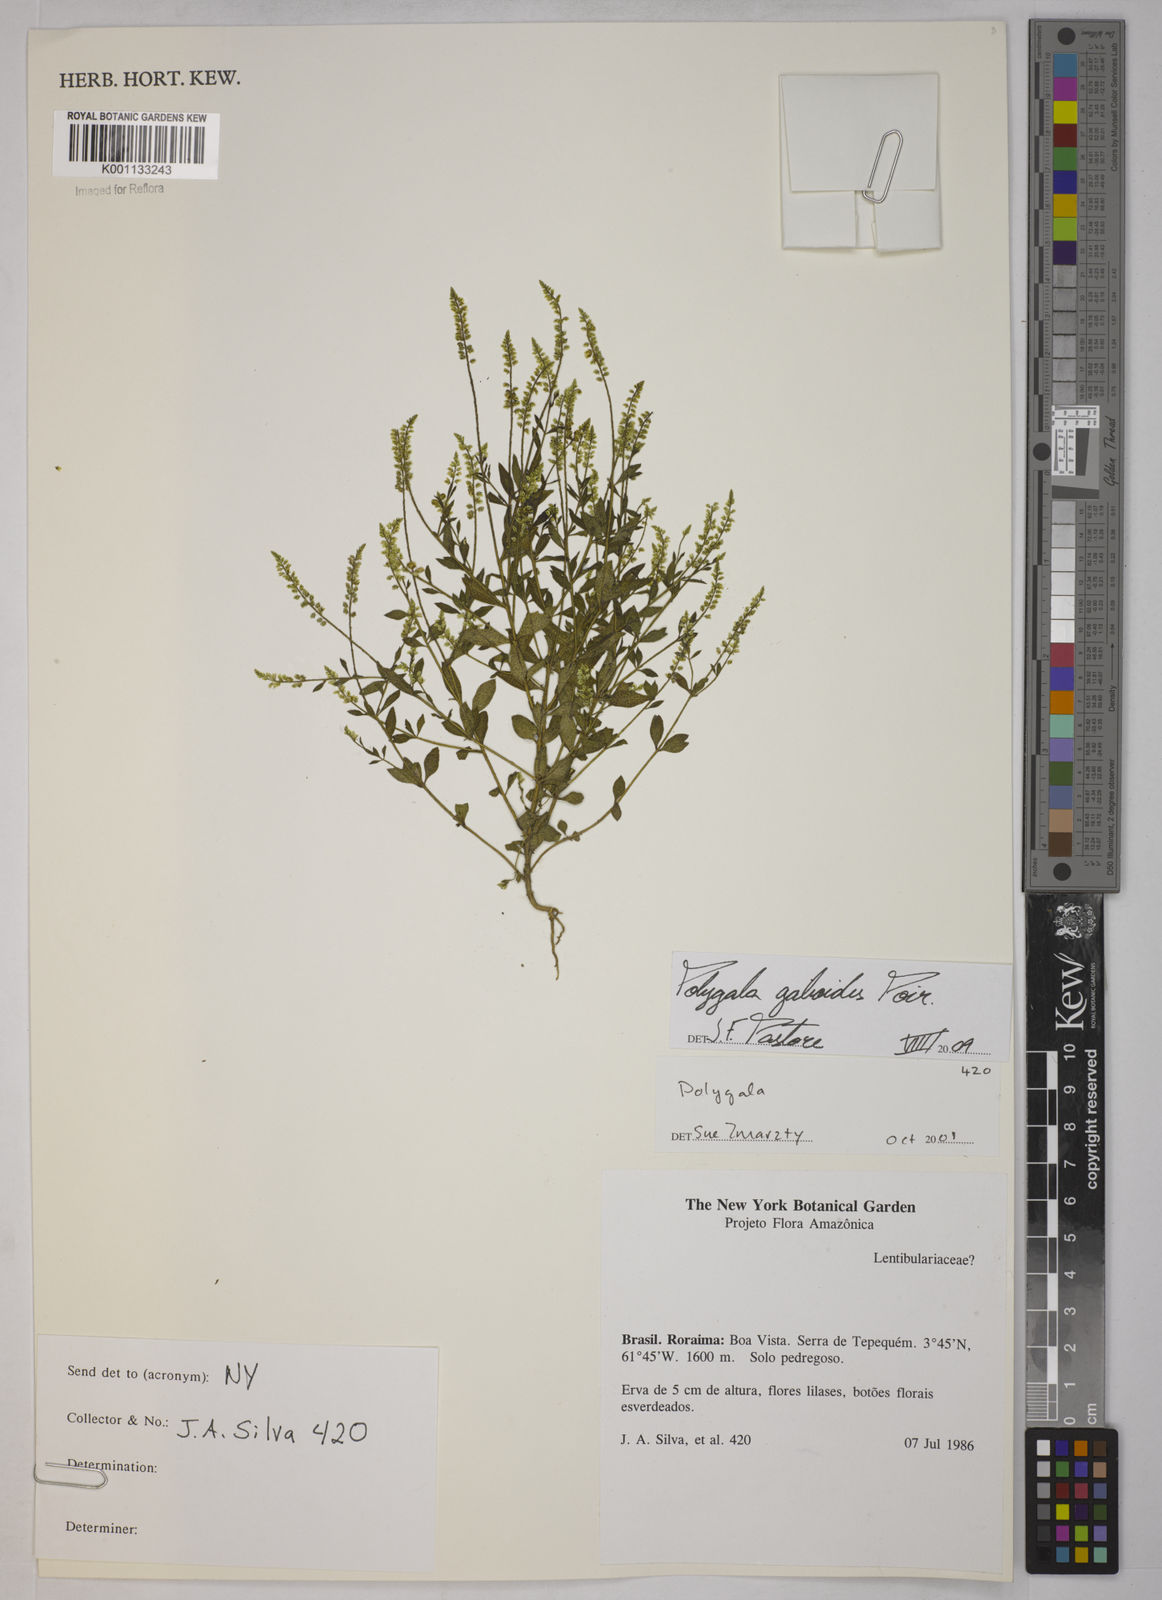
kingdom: Plantae
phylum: Tracheophyta
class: Magnoliopsida
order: Fabales
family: Polygalaceae
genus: Polygala
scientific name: Polygala galioides
